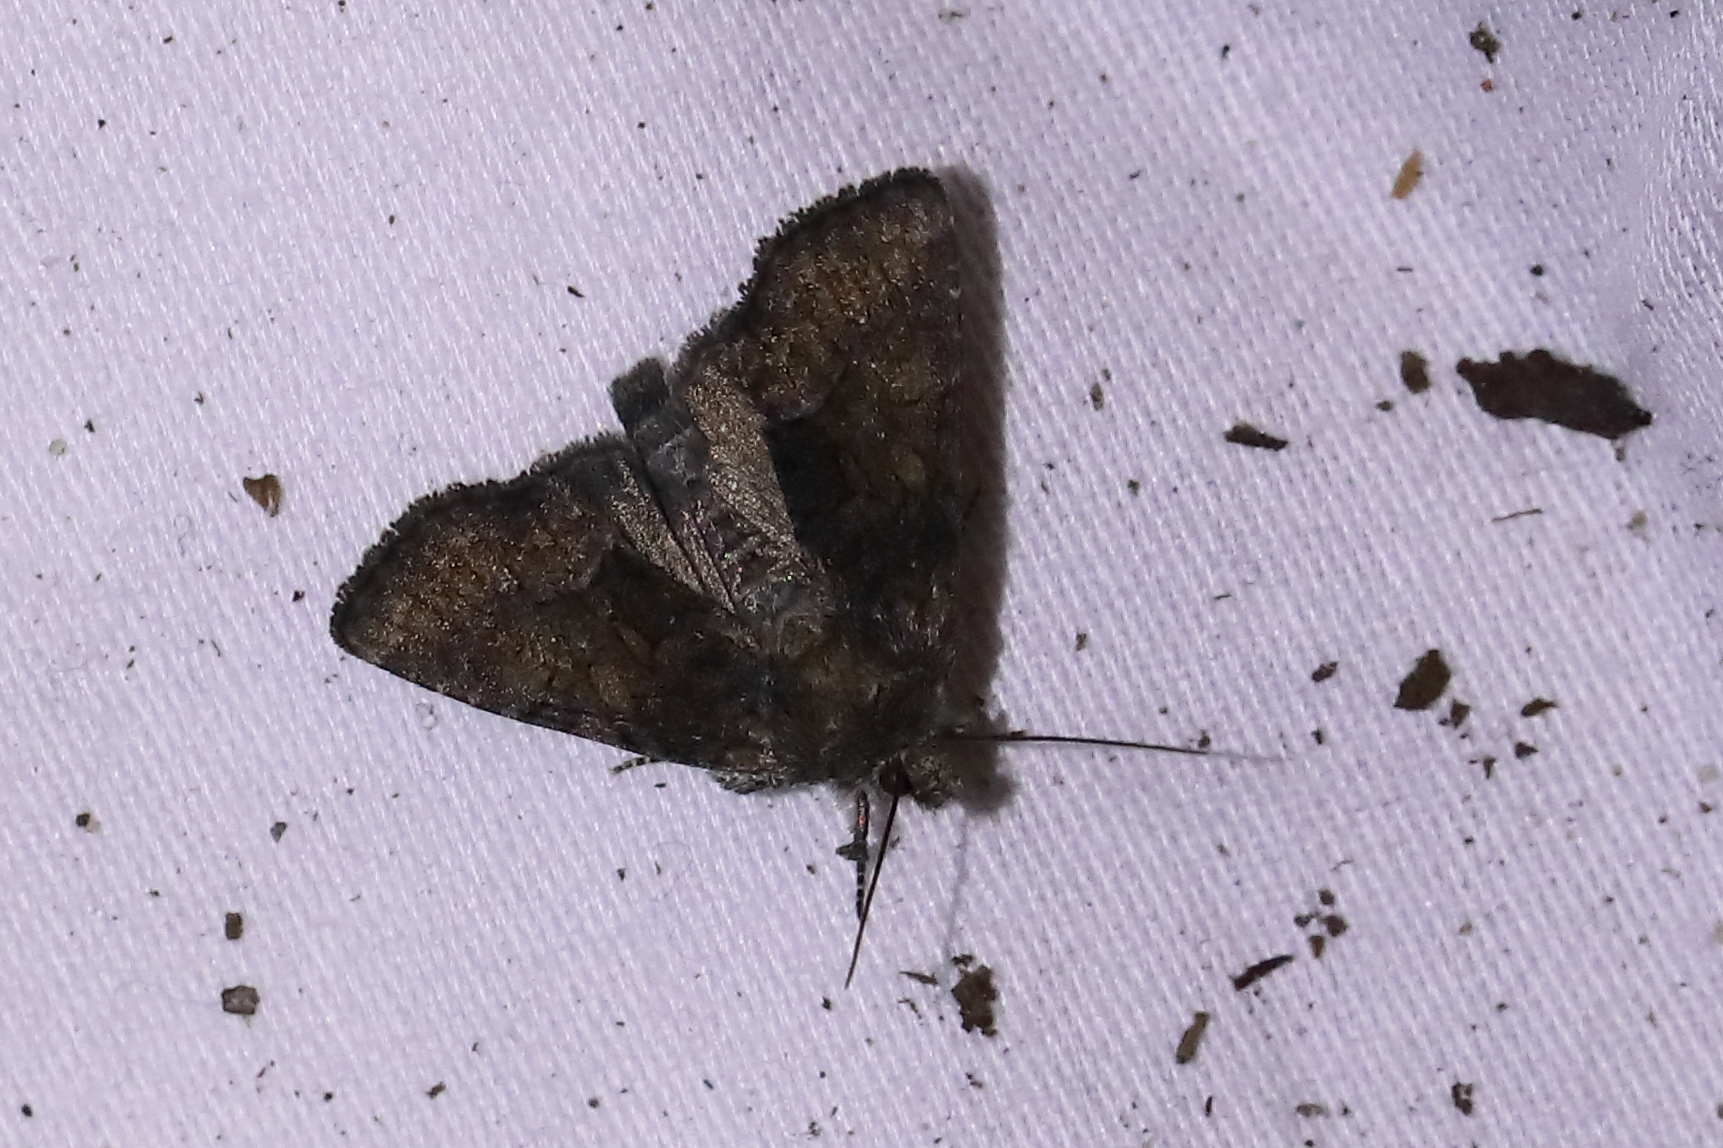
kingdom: Animalia
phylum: Arthropoda
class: Insecta
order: Lepidoptera
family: Noctuidae
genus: Oligia
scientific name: Oligia latruncula
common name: Tawny marbled minor
